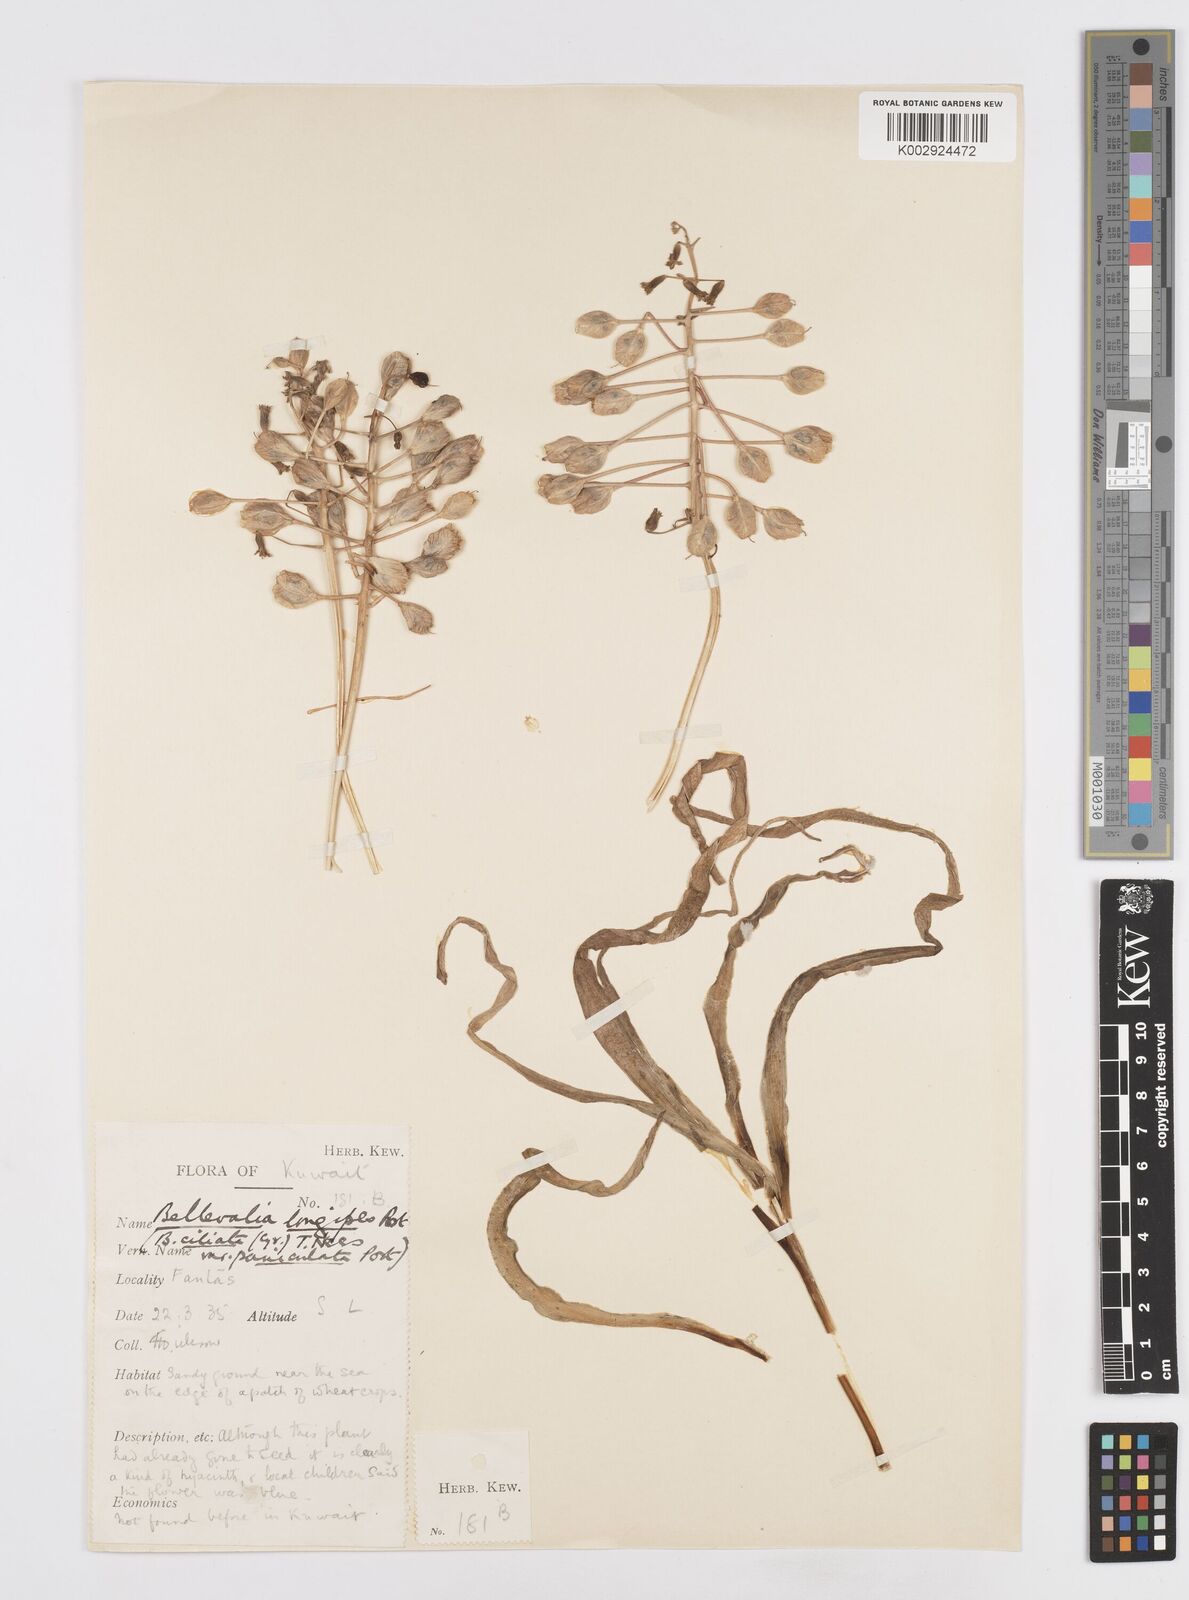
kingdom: Plantae
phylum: Tracheophyta
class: Liliopsida
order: Asparagales
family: Asparagaceae
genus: Bellevalia
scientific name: Bellevalia saviczii
